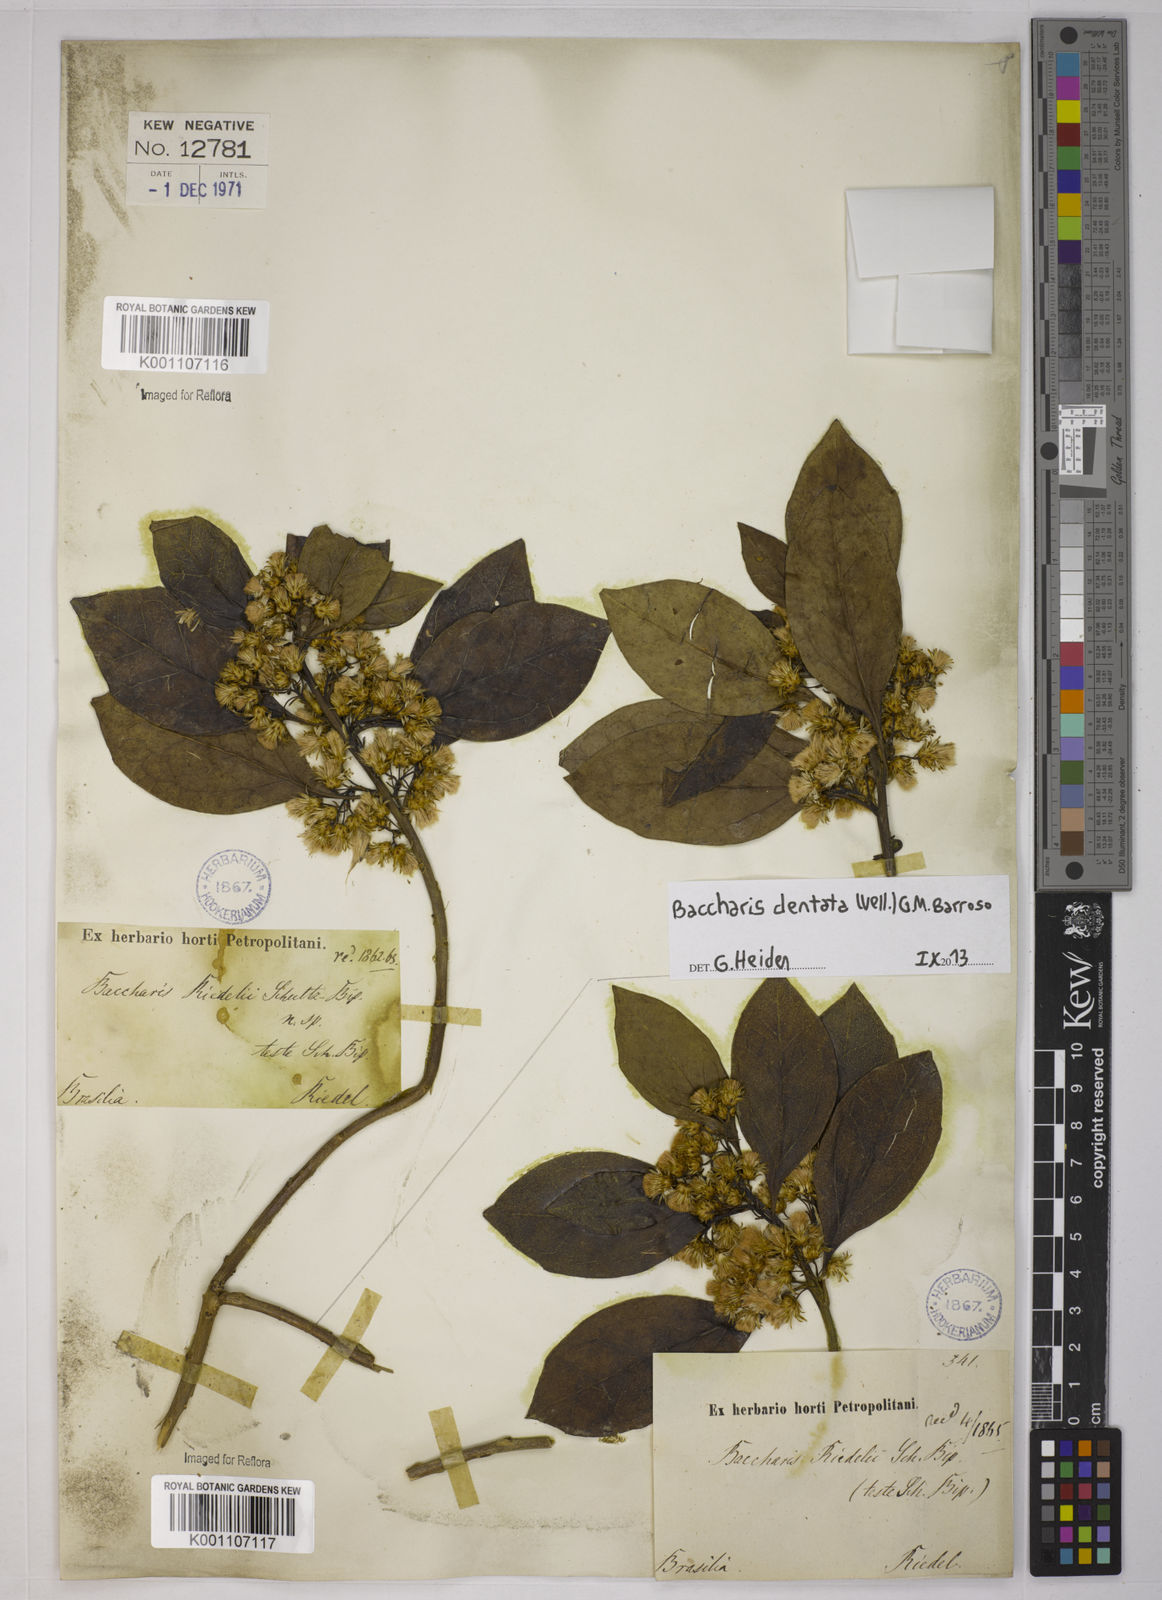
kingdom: Plantae
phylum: Tracheophyta
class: Magnoliopsida
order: Asterales
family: Asteraceae
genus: Baccharis
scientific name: Baccharis dentata
